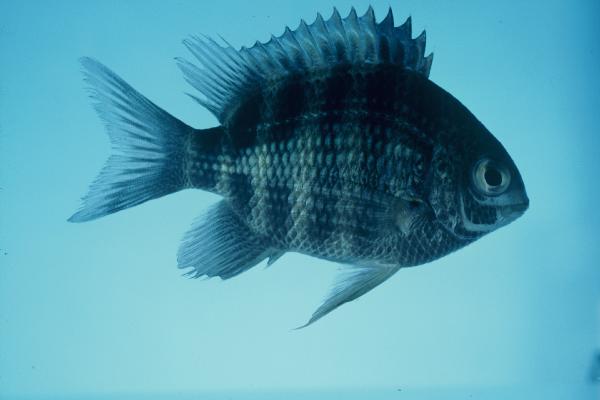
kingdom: Animalia
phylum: Chordata
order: Perciformes
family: Pomacentridae
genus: Abudefduf
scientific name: Abudefduf margariteus
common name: Pearly sergeant
